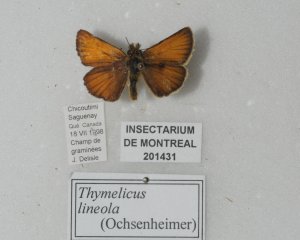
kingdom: Animalia
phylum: Arthropoda
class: Insecta
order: Lepidoptera
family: Hesperiidae
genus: Thymelicus
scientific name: Thymelicus lineola
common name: European Skipper
